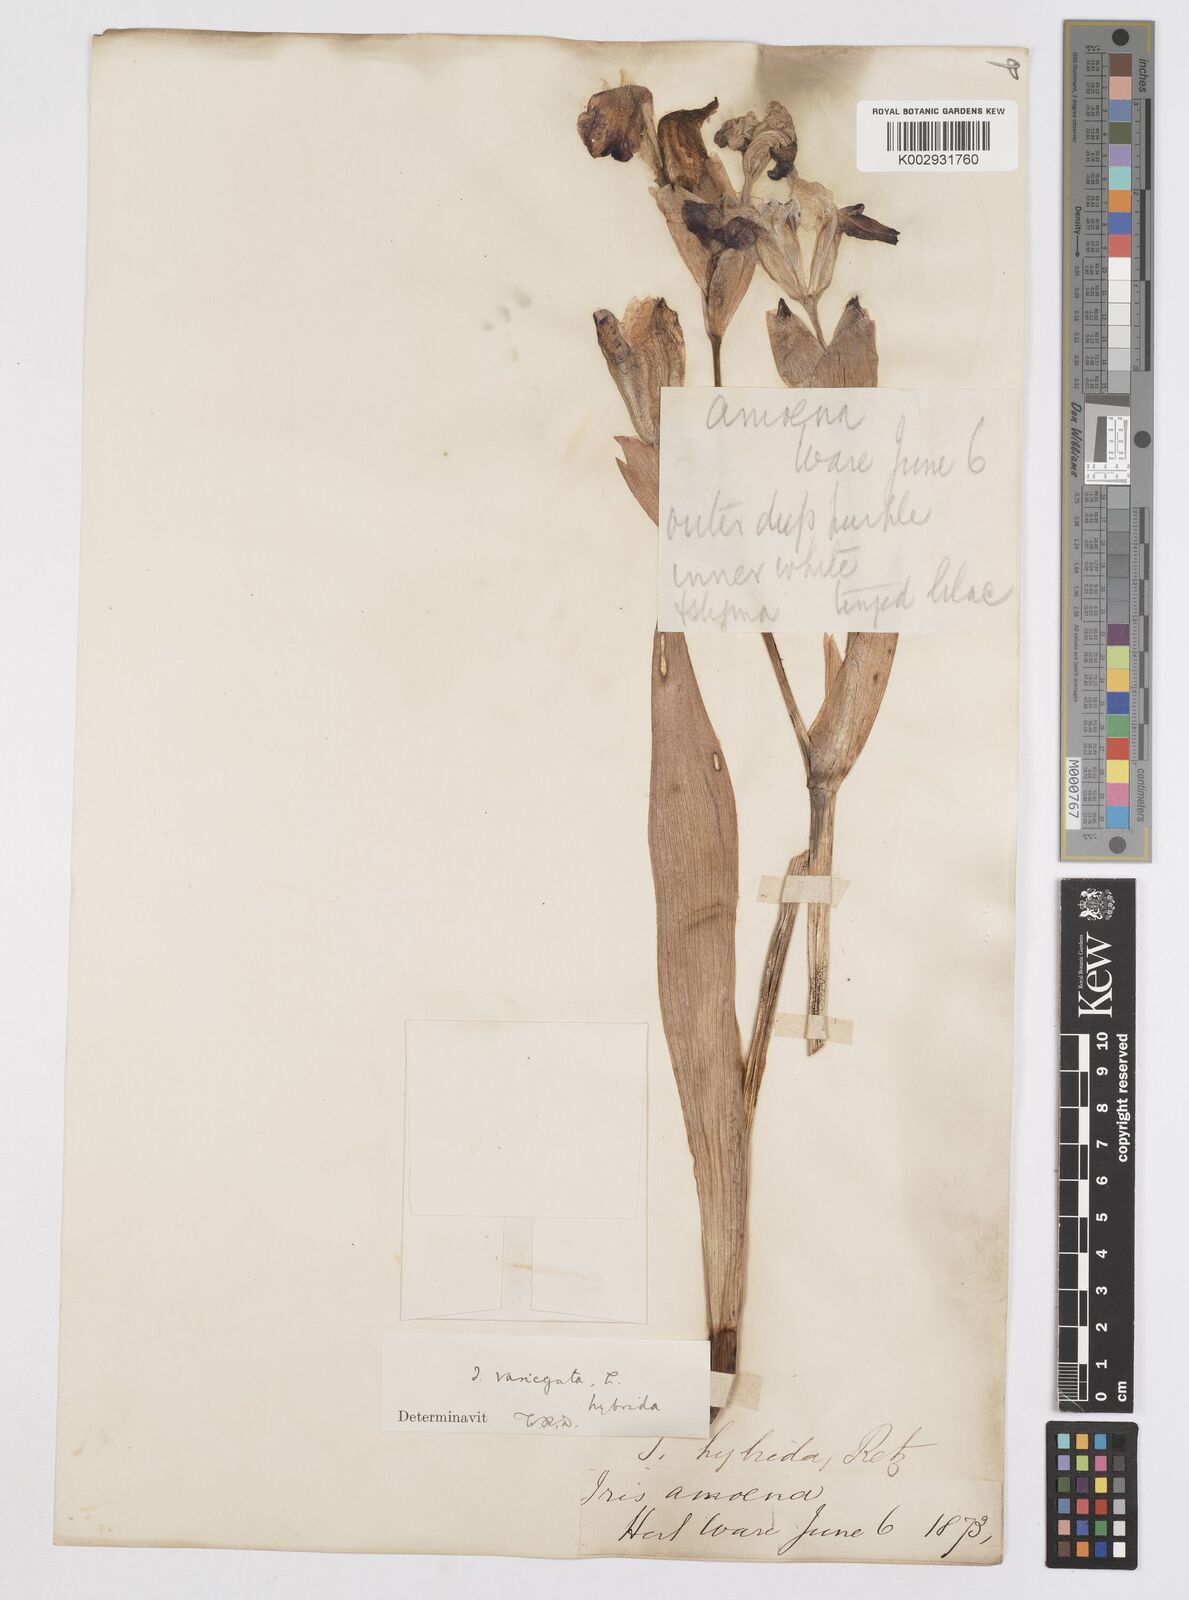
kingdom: Plantae
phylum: Tracheophyta
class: Liliopsida
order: Asparagales
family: Iridaceae
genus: Iris
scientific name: Iris germanica
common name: German iris
